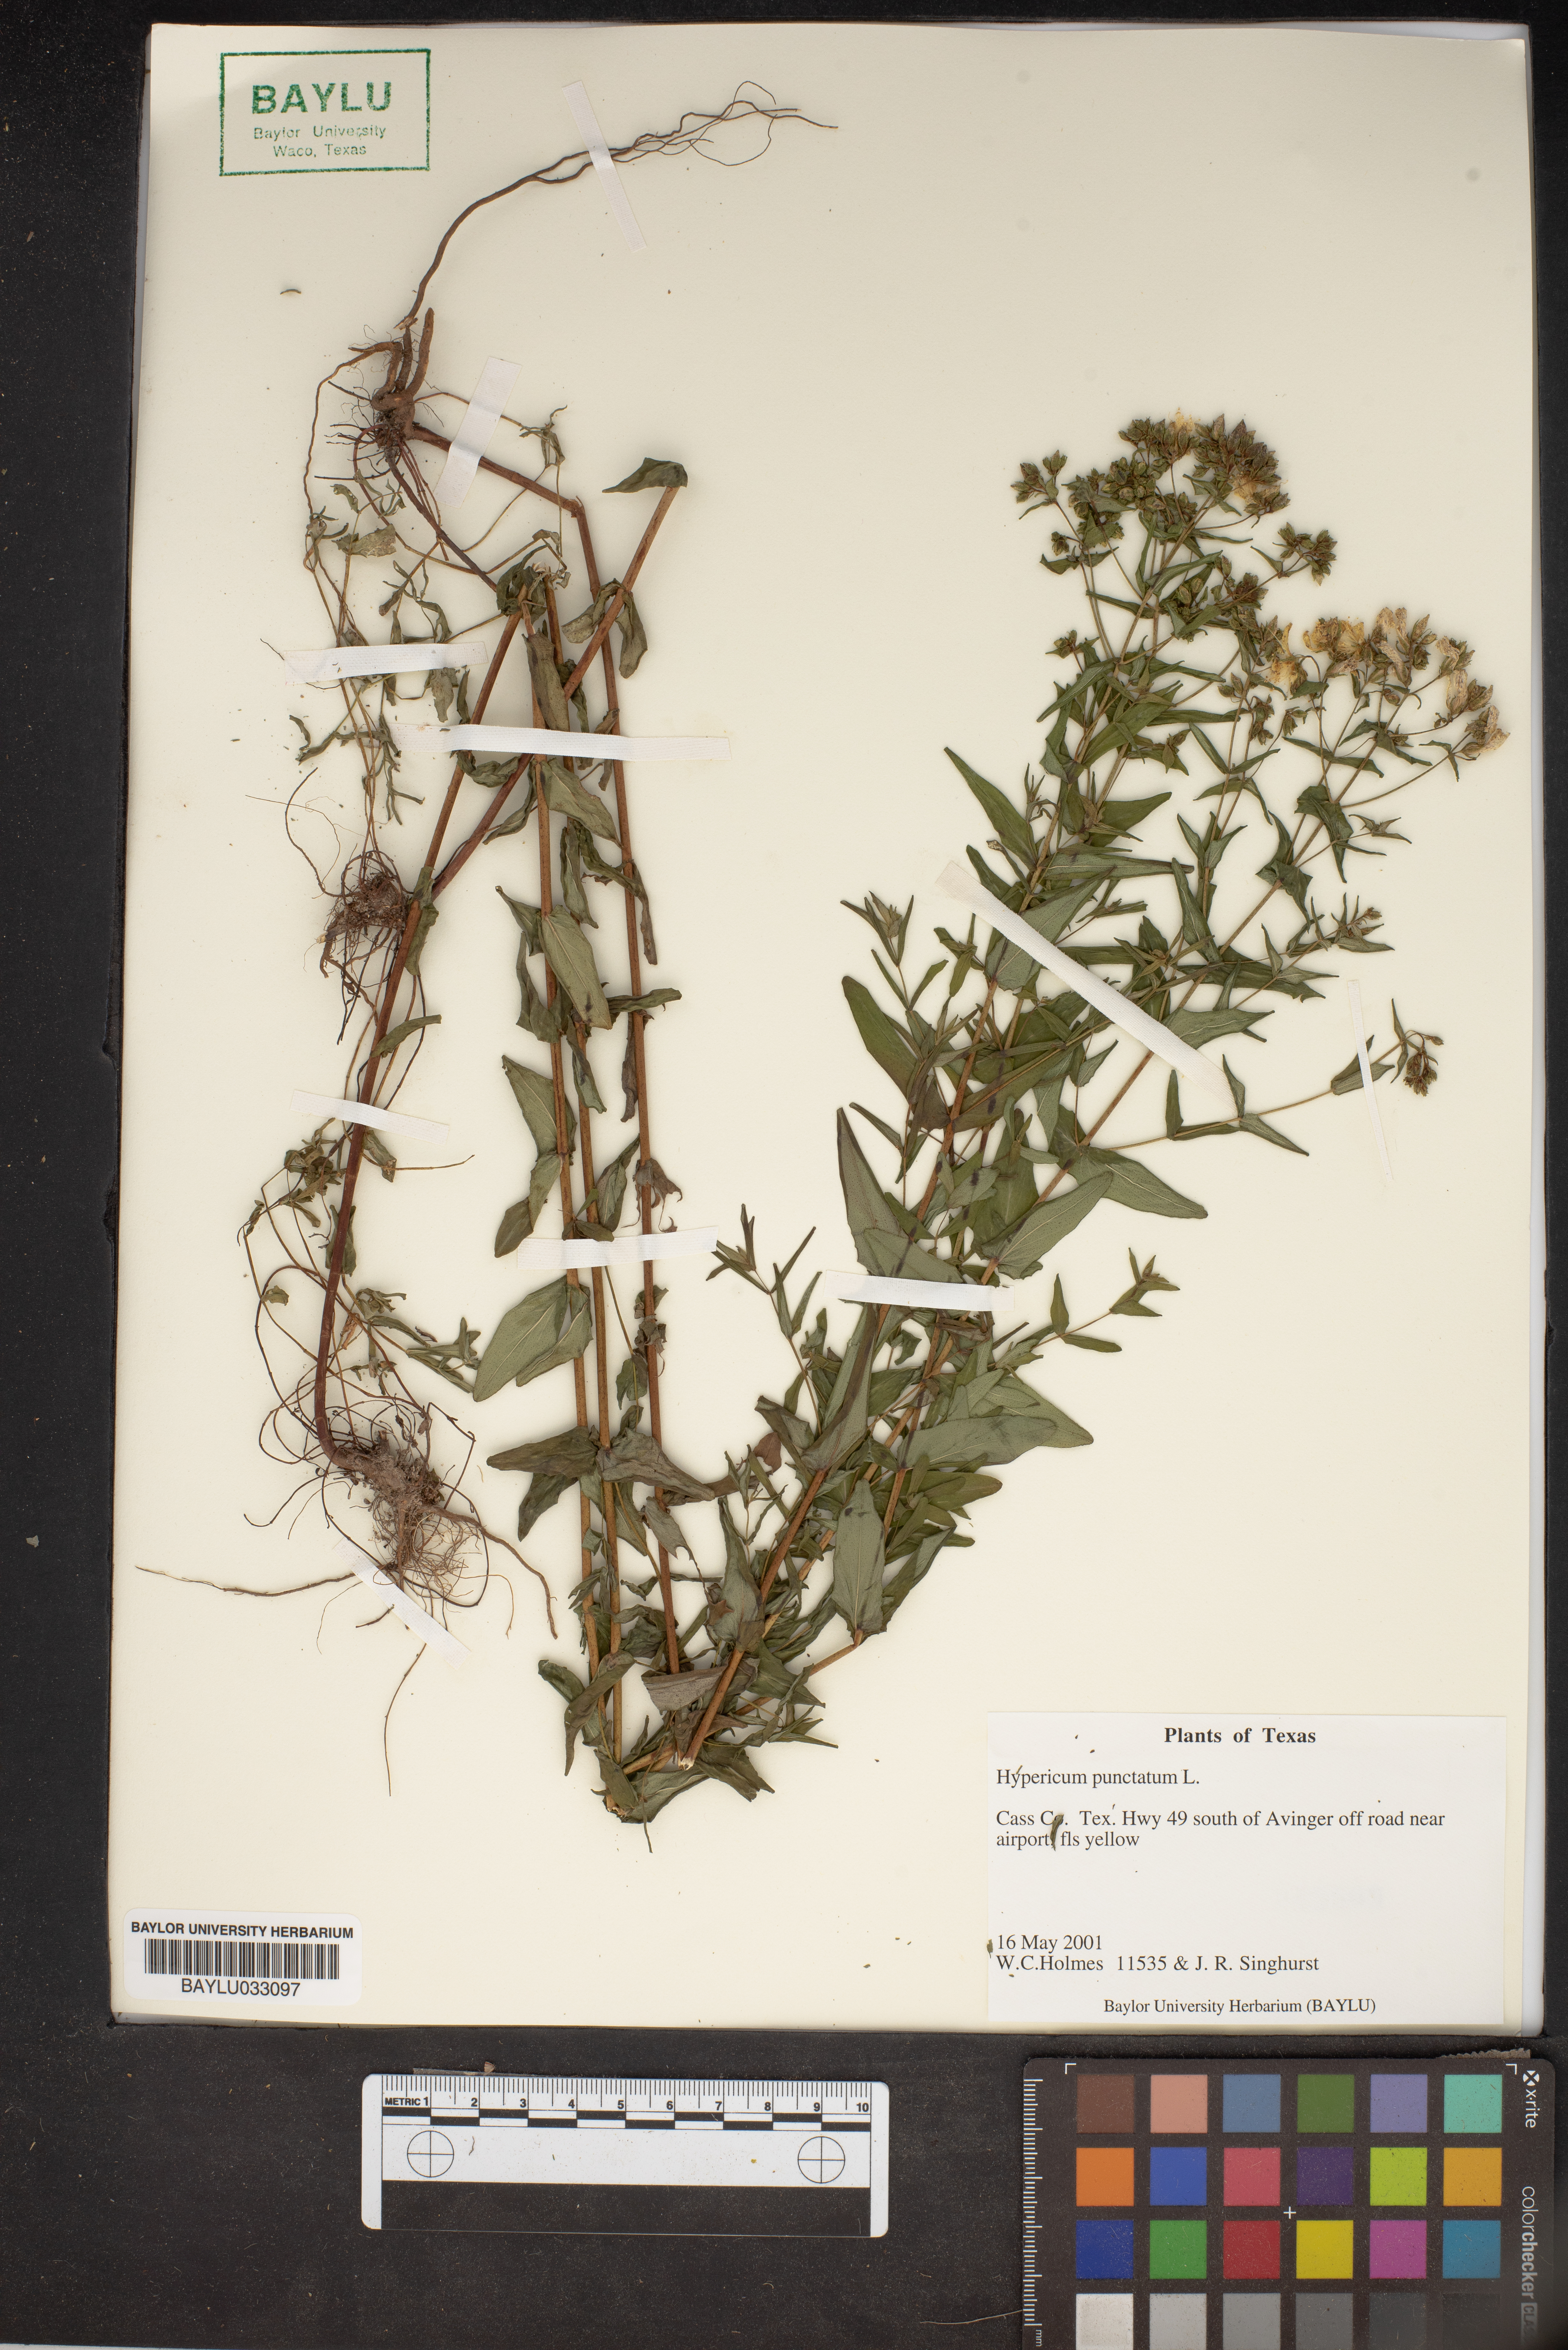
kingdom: Plantae
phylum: Tracheophyta
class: Magnoliopsida
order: Malpighiales
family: Hypericaceae
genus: Hypericum
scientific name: Hypericum punctatum
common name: Spotted st. john's-wort
